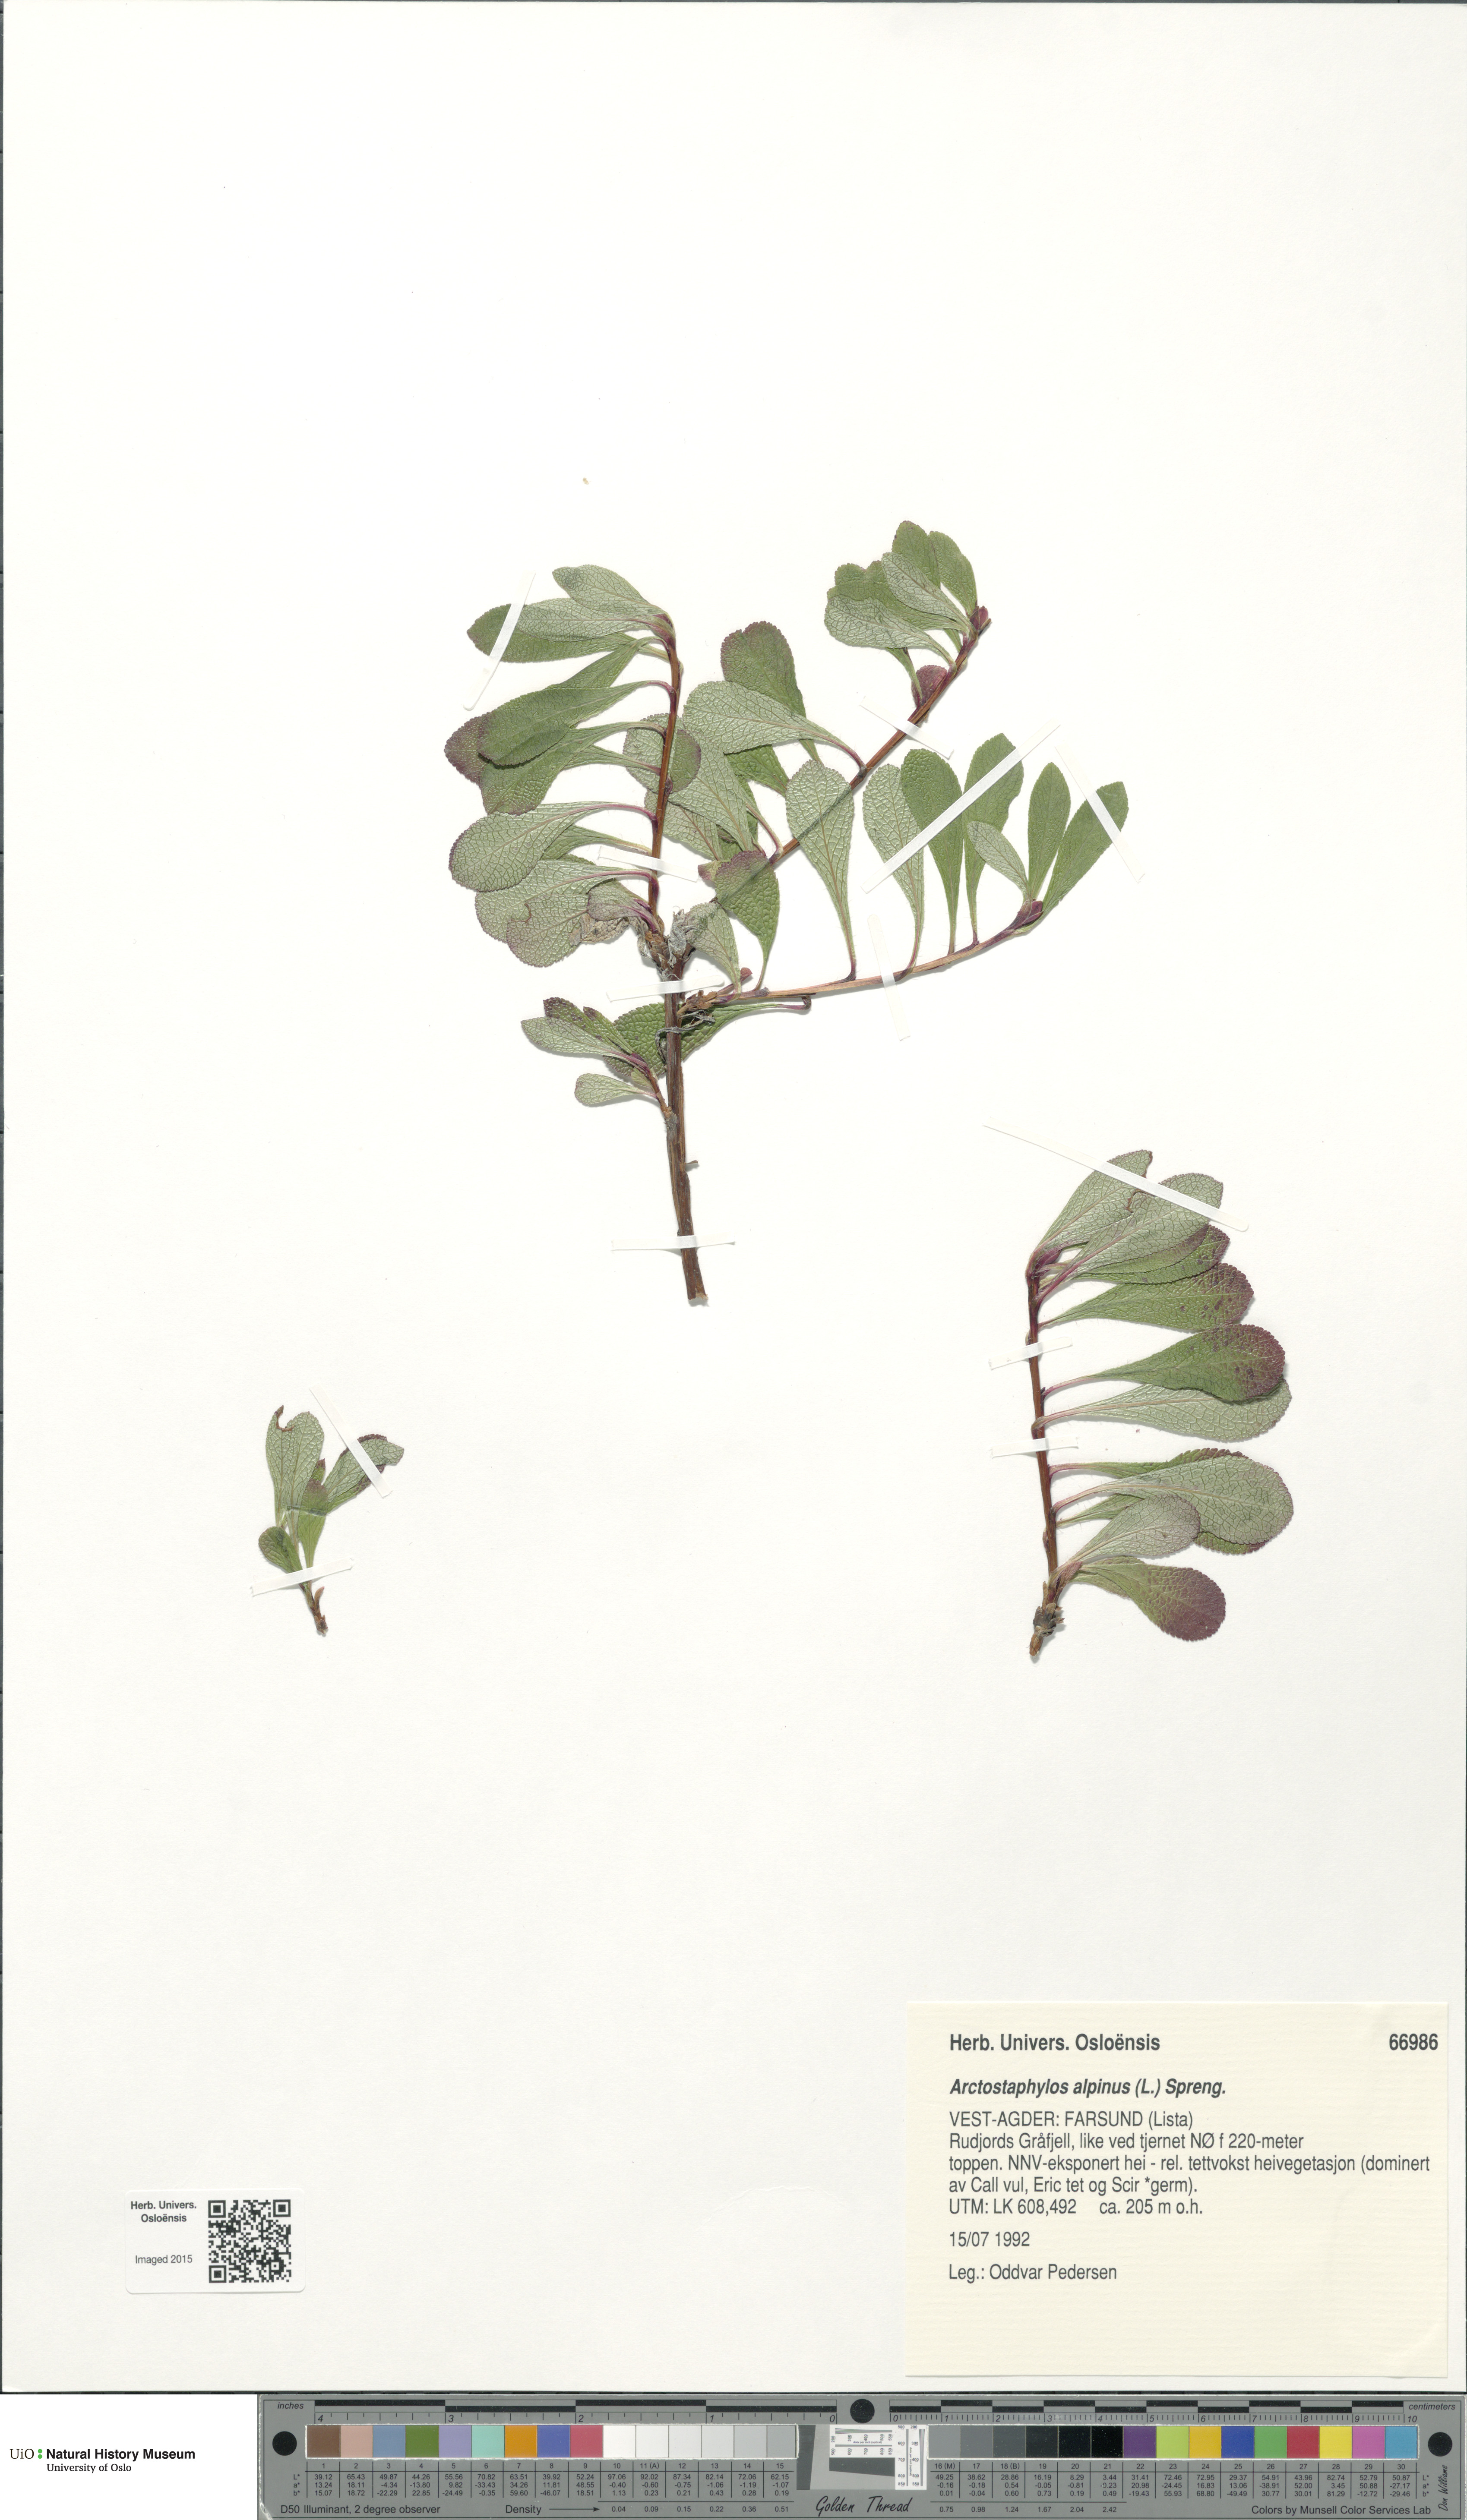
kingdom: Plantae
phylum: Tracheophyta
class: Magnoliopsida
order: Ericales
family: Ericaceae
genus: Arctostaphylos
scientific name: Arctostaphylos alpinus
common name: Alpine bearberry
